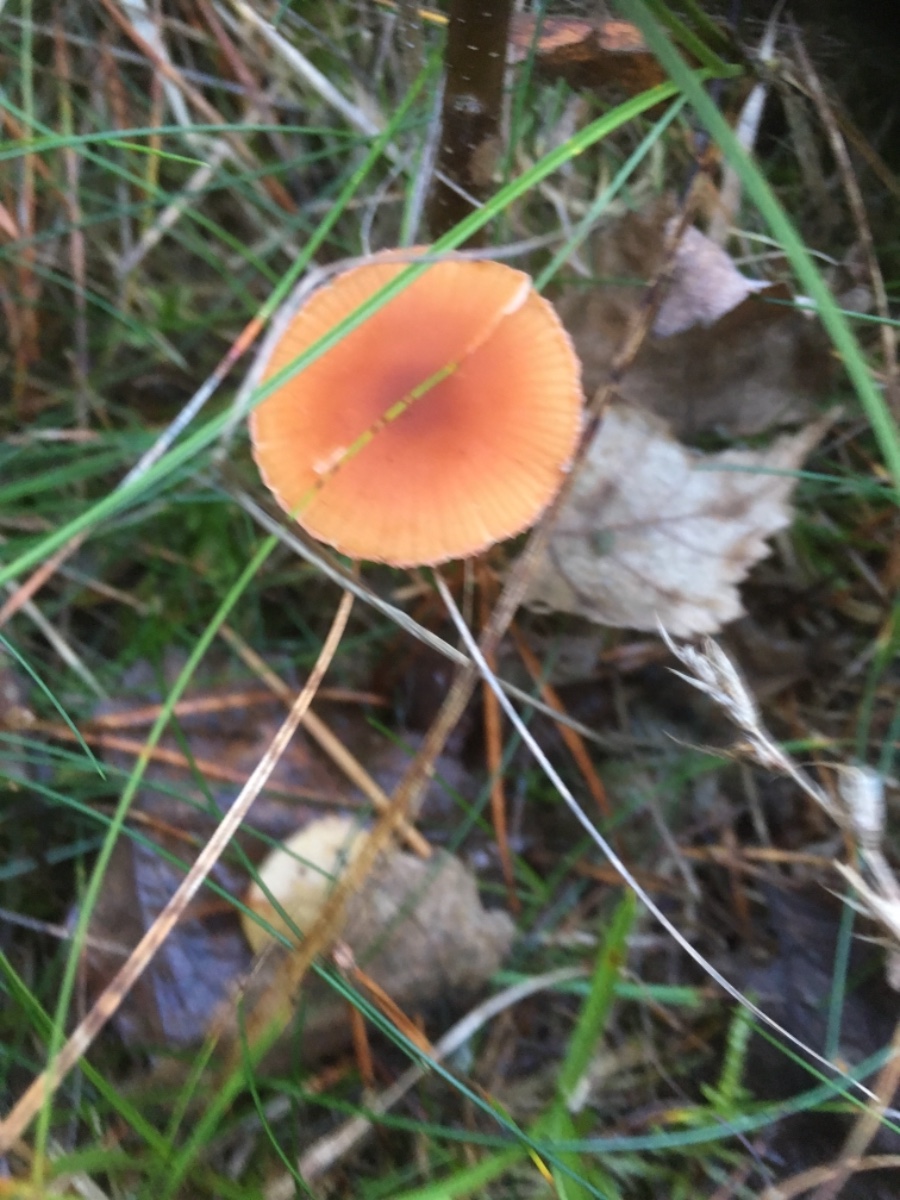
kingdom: Fungi
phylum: Basidiomycota
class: Agaricomycetes
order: Agaricales
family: Hydnangiaceae
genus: Laccaria
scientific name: Laccaria proxima
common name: stor ametysthat
